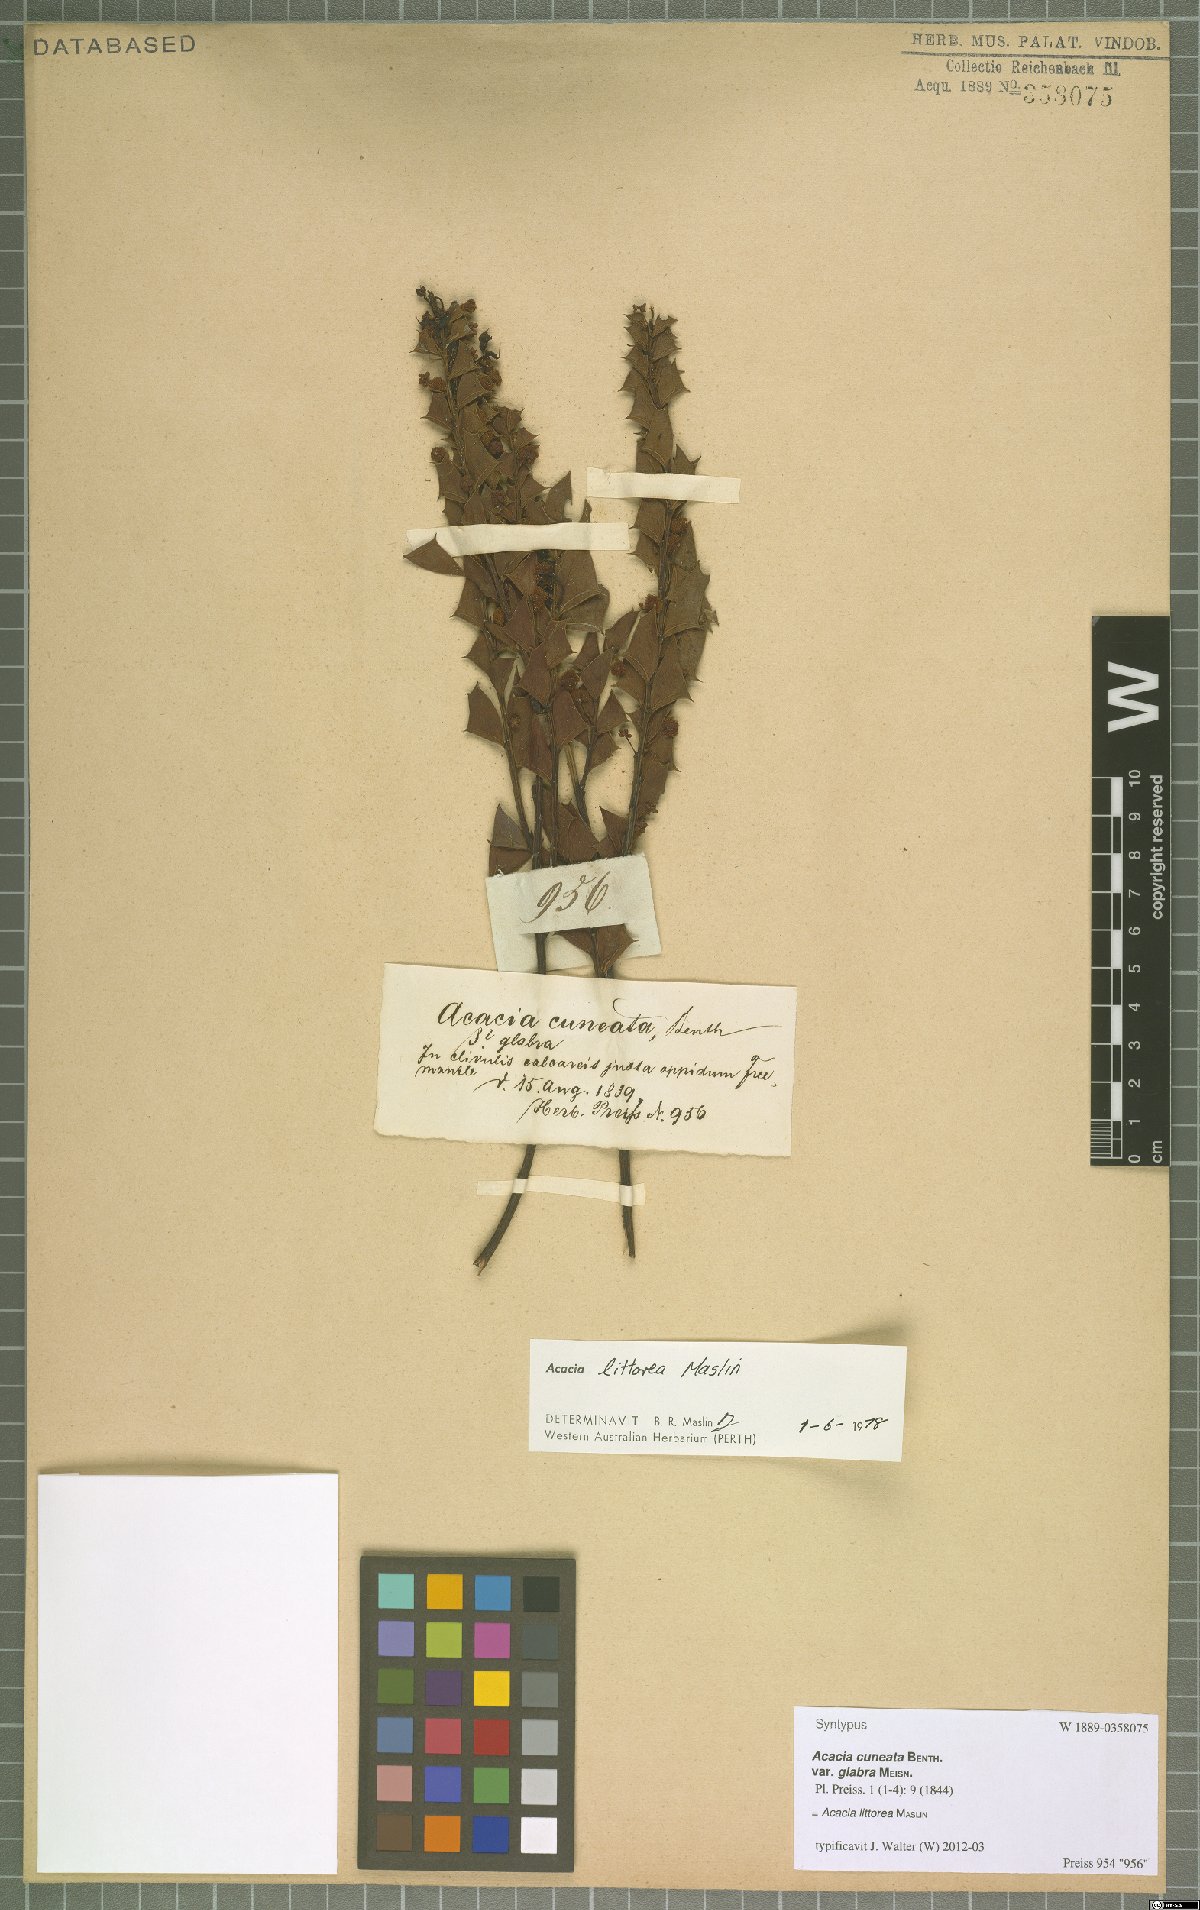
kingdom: Plantae
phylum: Tracheophyta
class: Magnoliopsida
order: Fabales
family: Fabaceae
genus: Acacia
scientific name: Acacia trapezoidea
